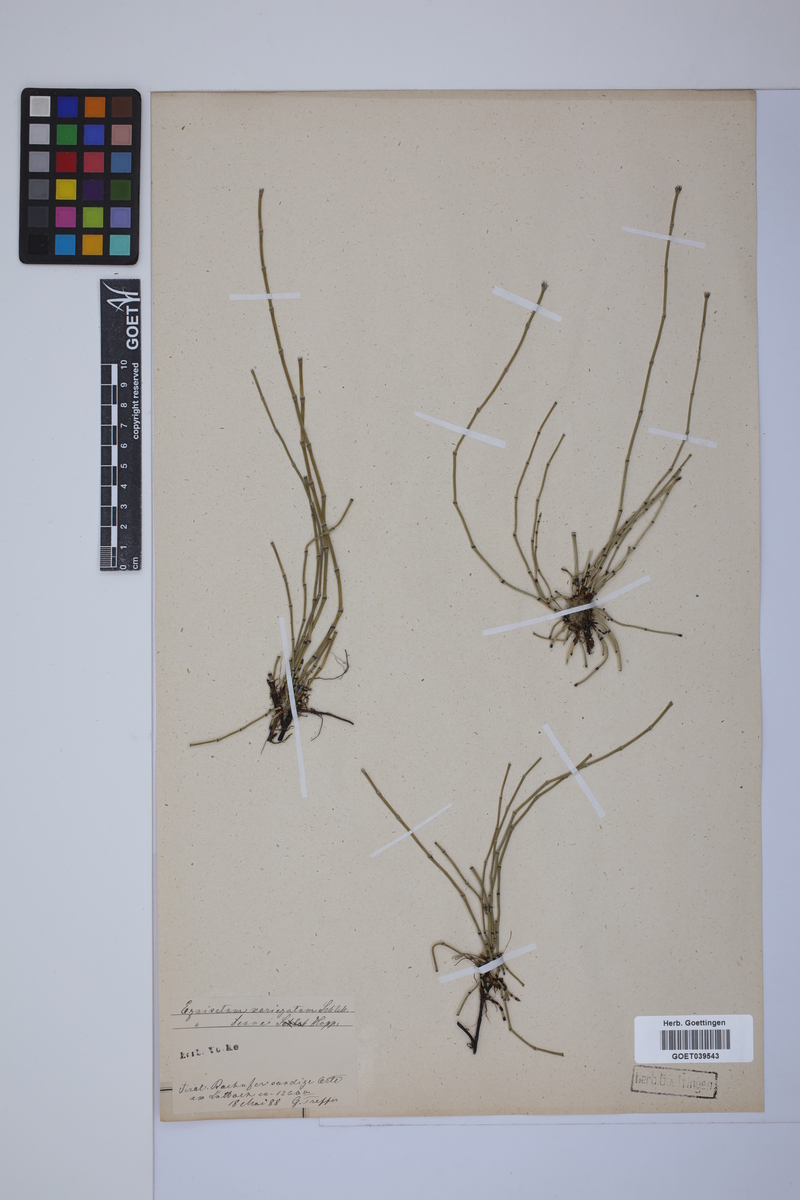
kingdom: Plantae
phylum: Tracheophyta
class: Polypodiopsida
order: Equisetales
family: Equisetaceae
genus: Equisetum
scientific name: Equisetum variegatum
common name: Variegated horsetail
